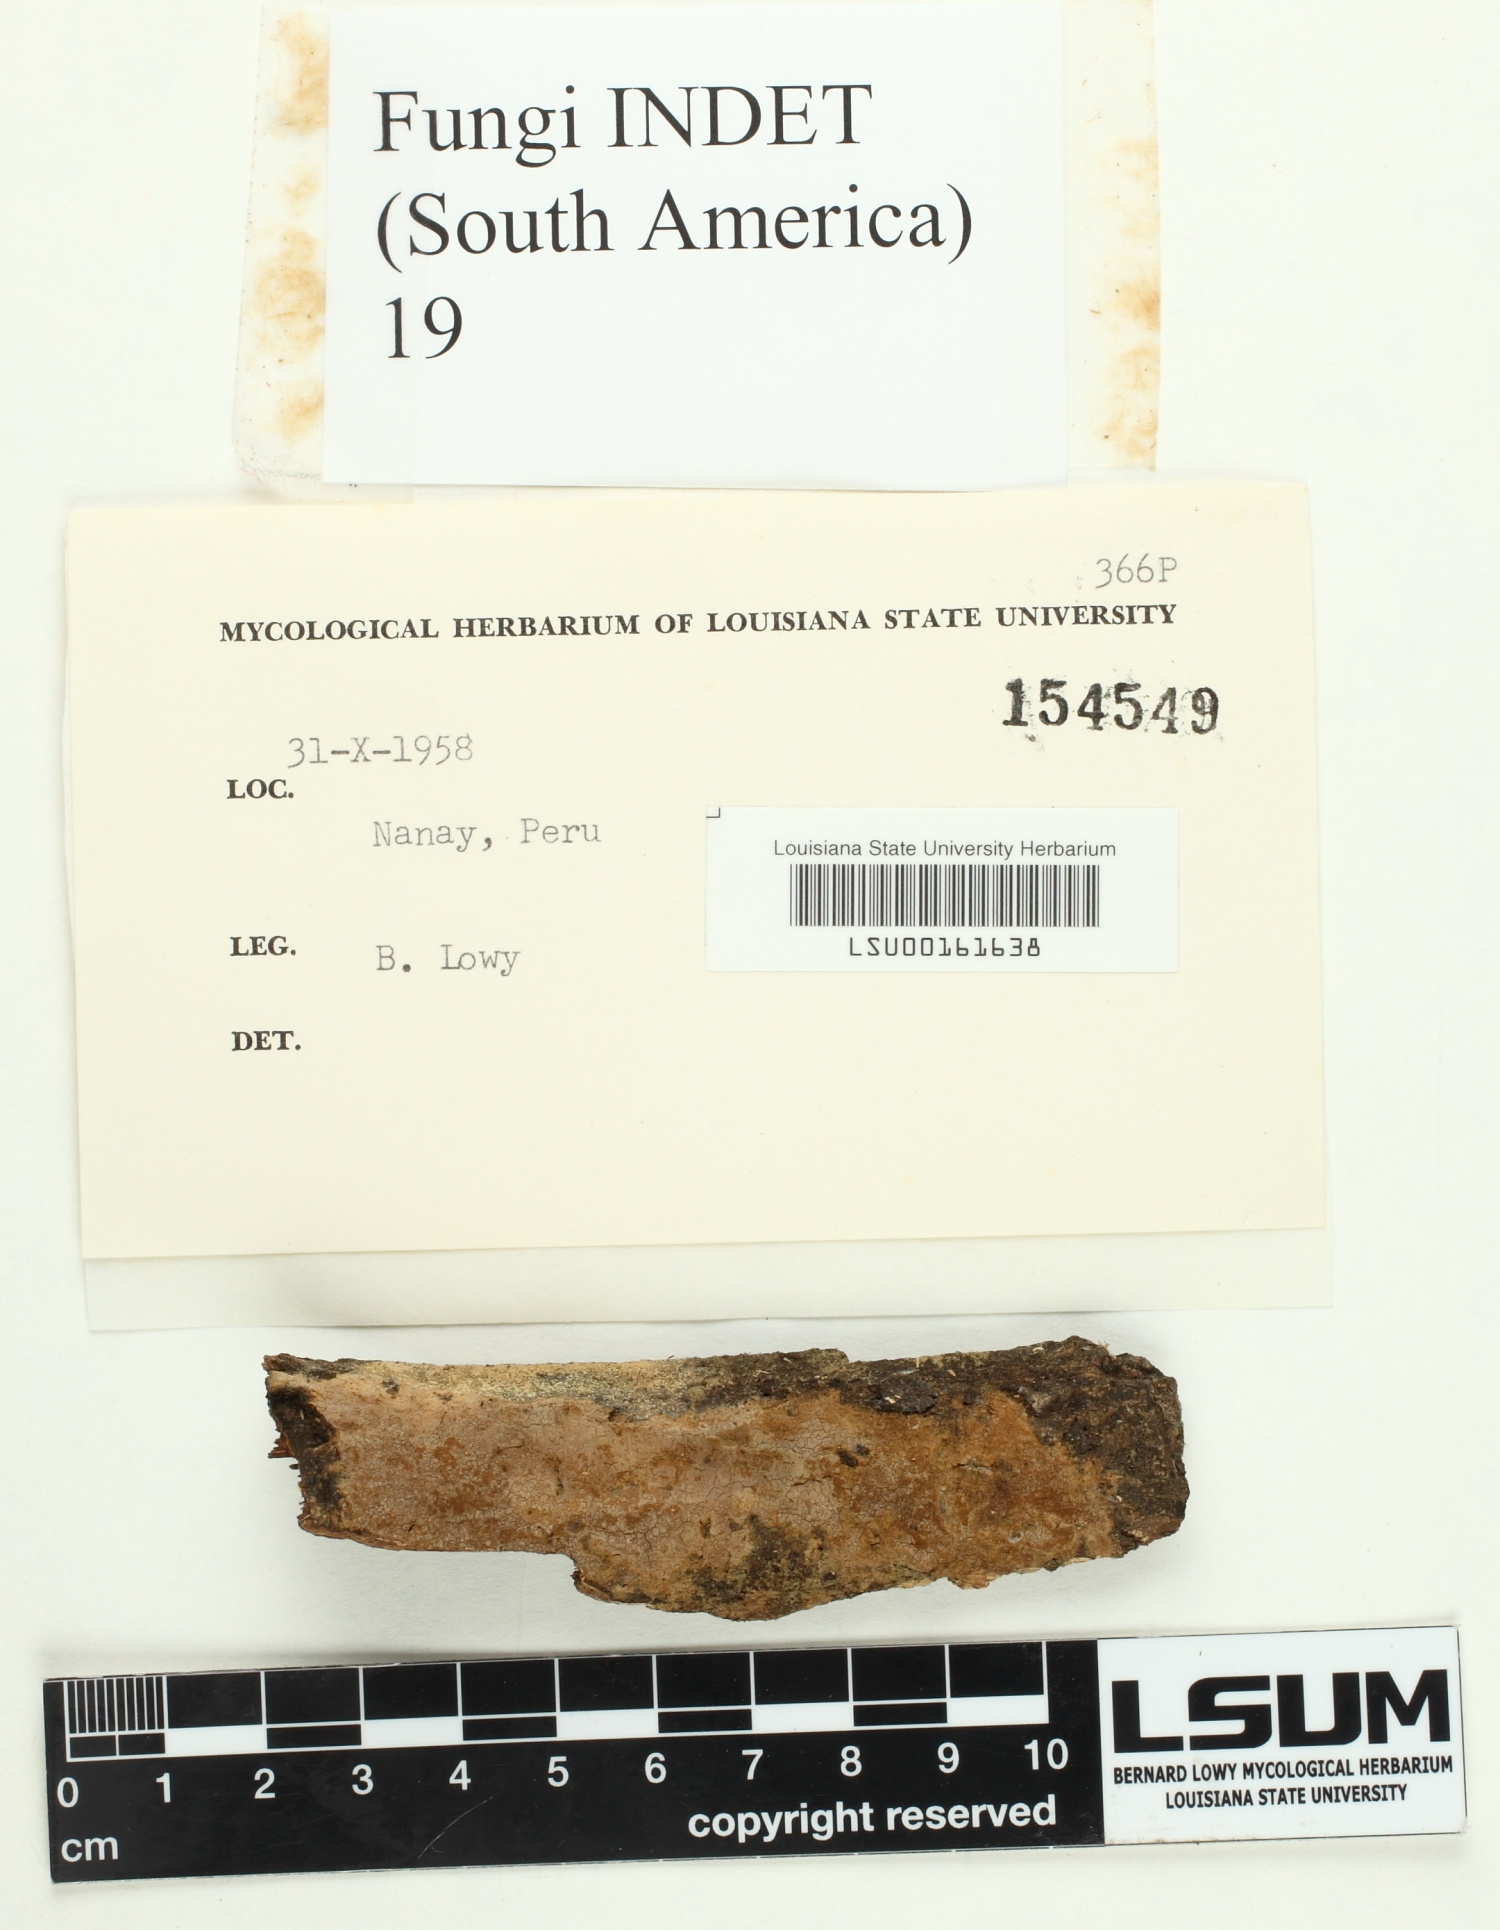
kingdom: Fungi
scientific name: Fungi
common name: Fungi
